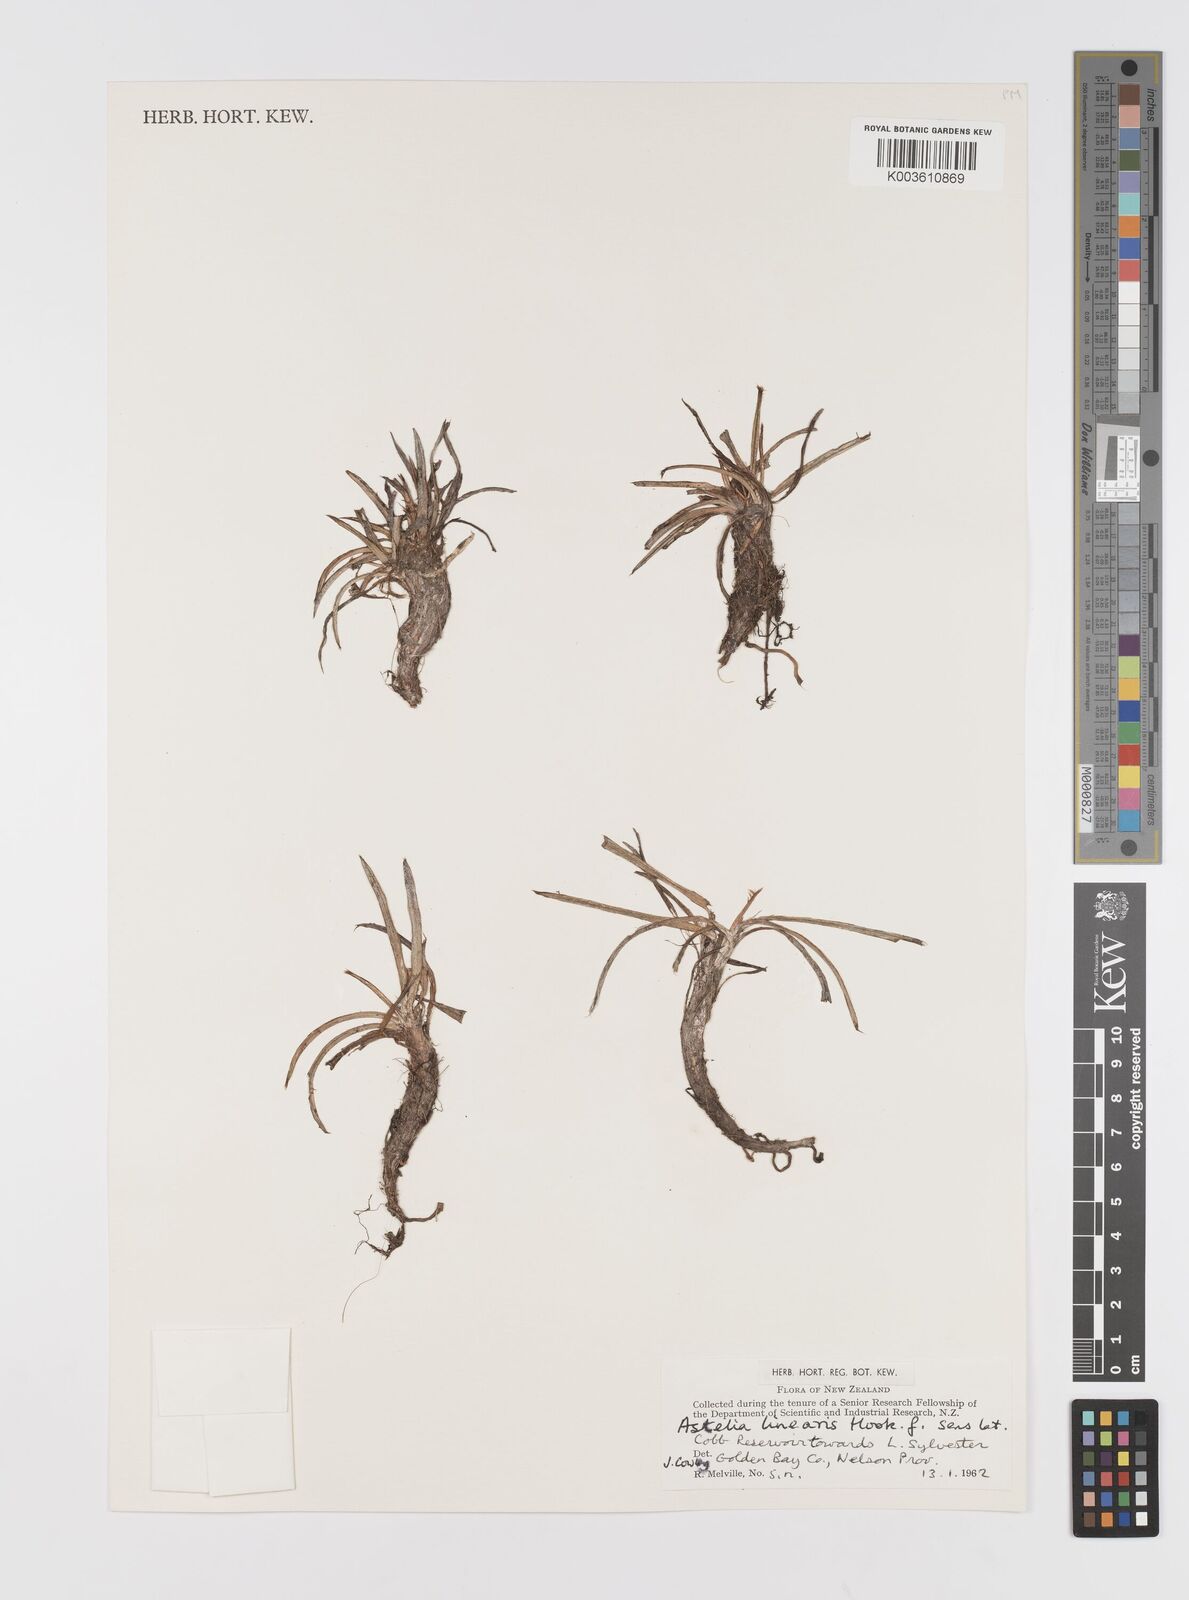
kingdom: Plantae
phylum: Tracheophyta
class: Liliopsida
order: Asparagales
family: Asteliaceae
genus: Astelia
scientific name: Astelia linearis
